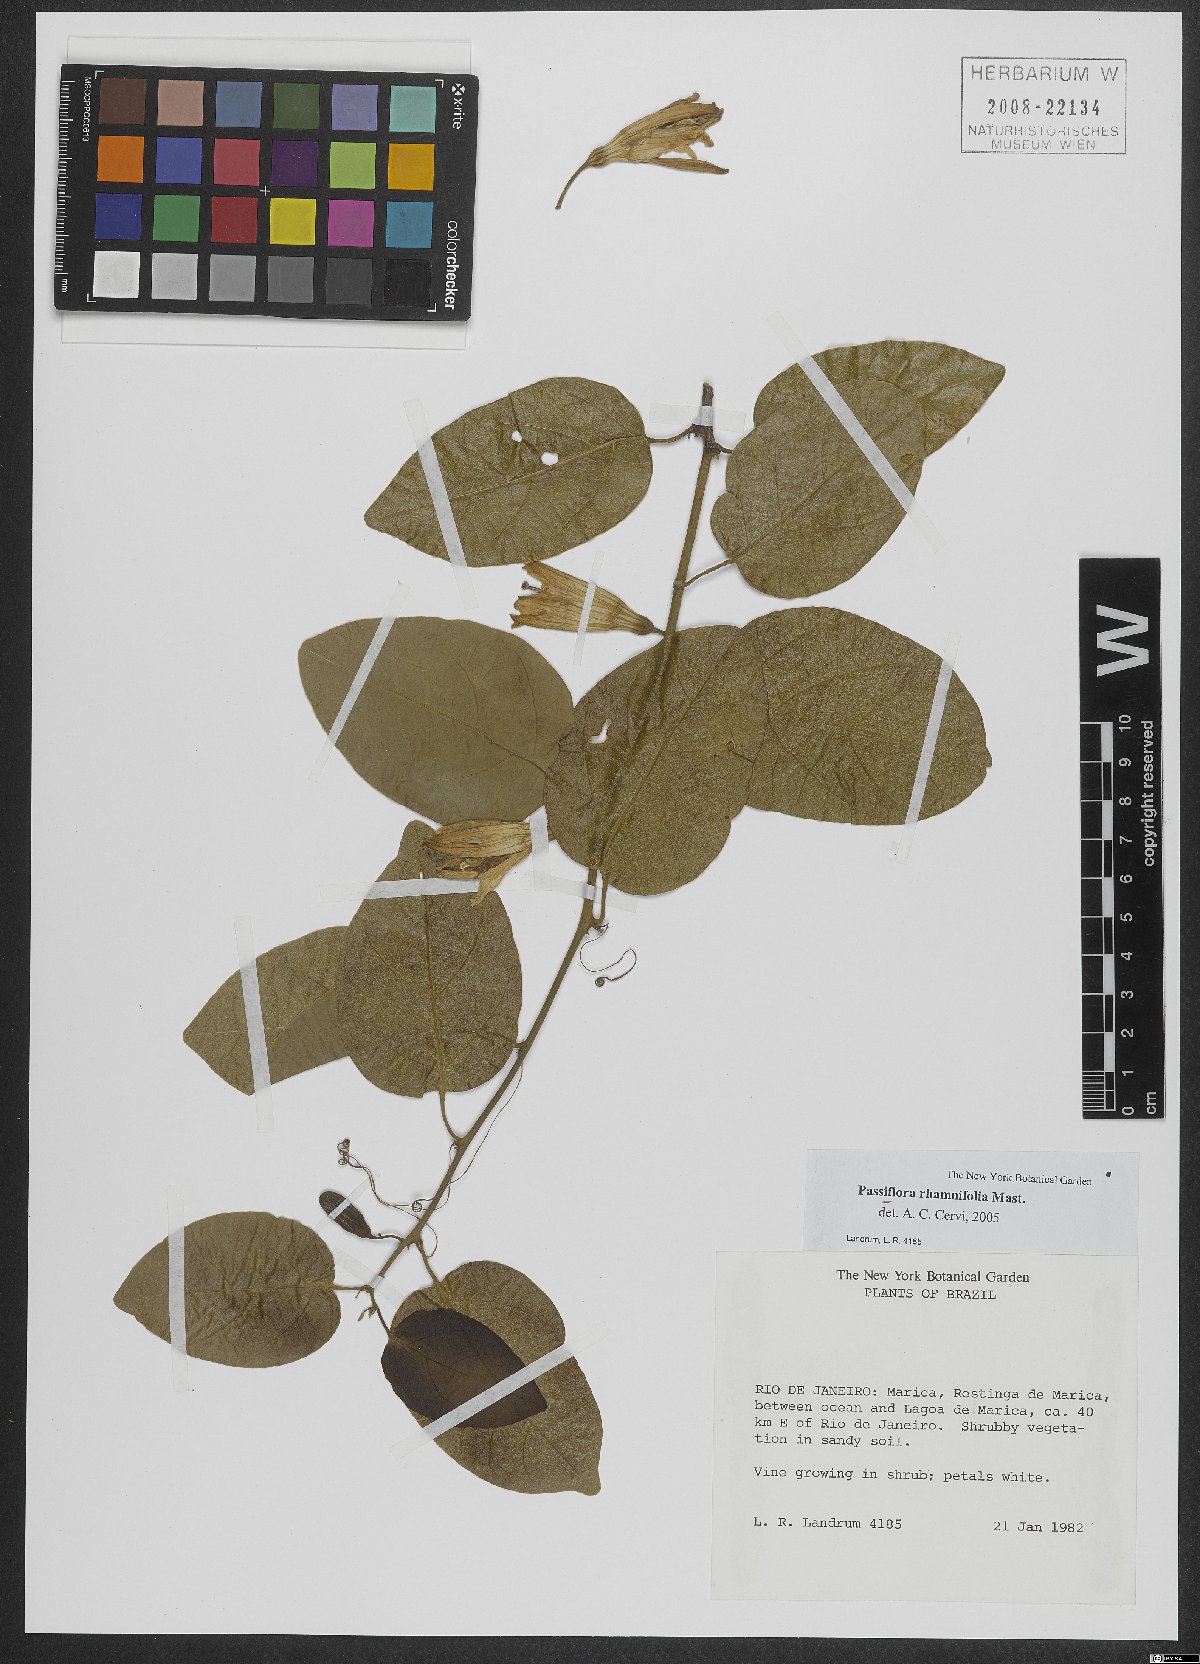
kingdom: Plantae
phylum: Tracheophyta
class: Magnoliopsida
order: Malpighiales
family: Passifloraceae
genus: Passiflora
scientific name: Passiflora rhamnifolia
